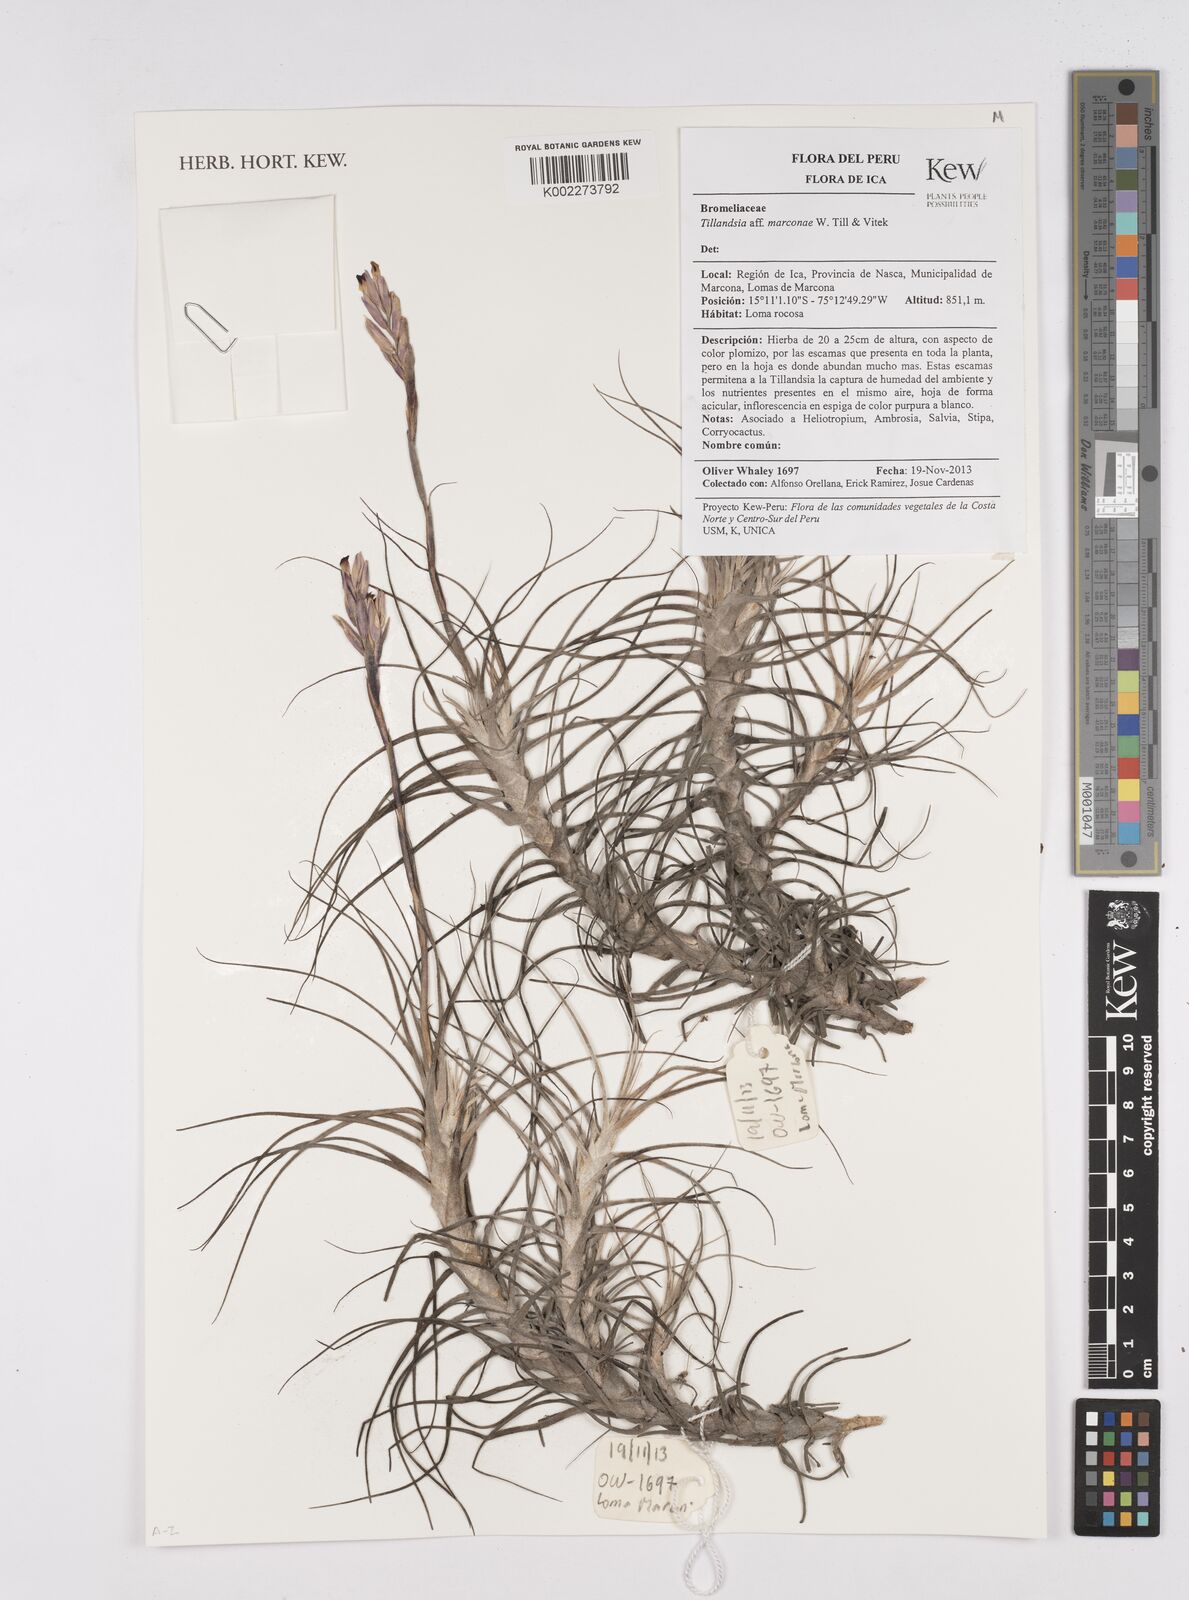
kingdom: Plantae
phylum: Tracheophyta
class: Liliopsida
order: Poales
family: Bromeliaceae
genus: Tillandsia
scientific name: Tillandsia marconae
